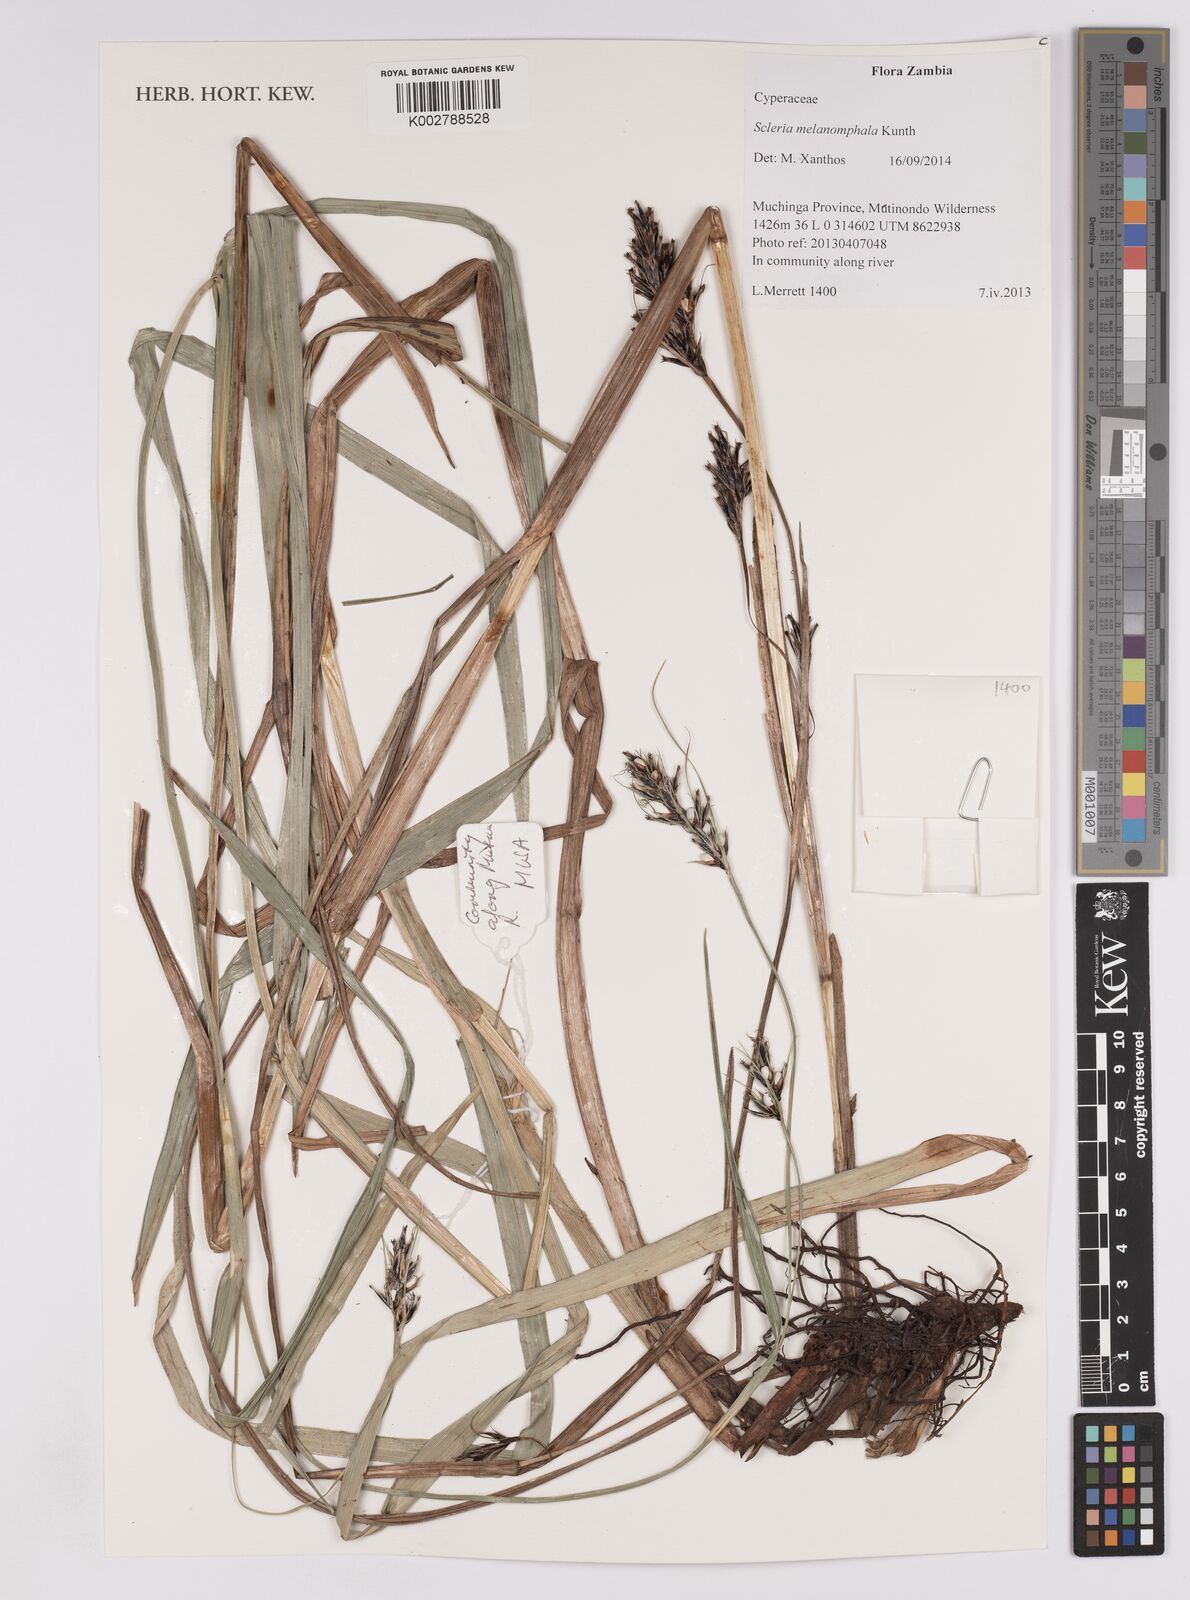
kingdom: Plantae
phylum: Tracheophyta
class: Liliopsida
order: Poales
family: Cyperaceae
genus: Scleria
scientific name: Scleria melanomphala
